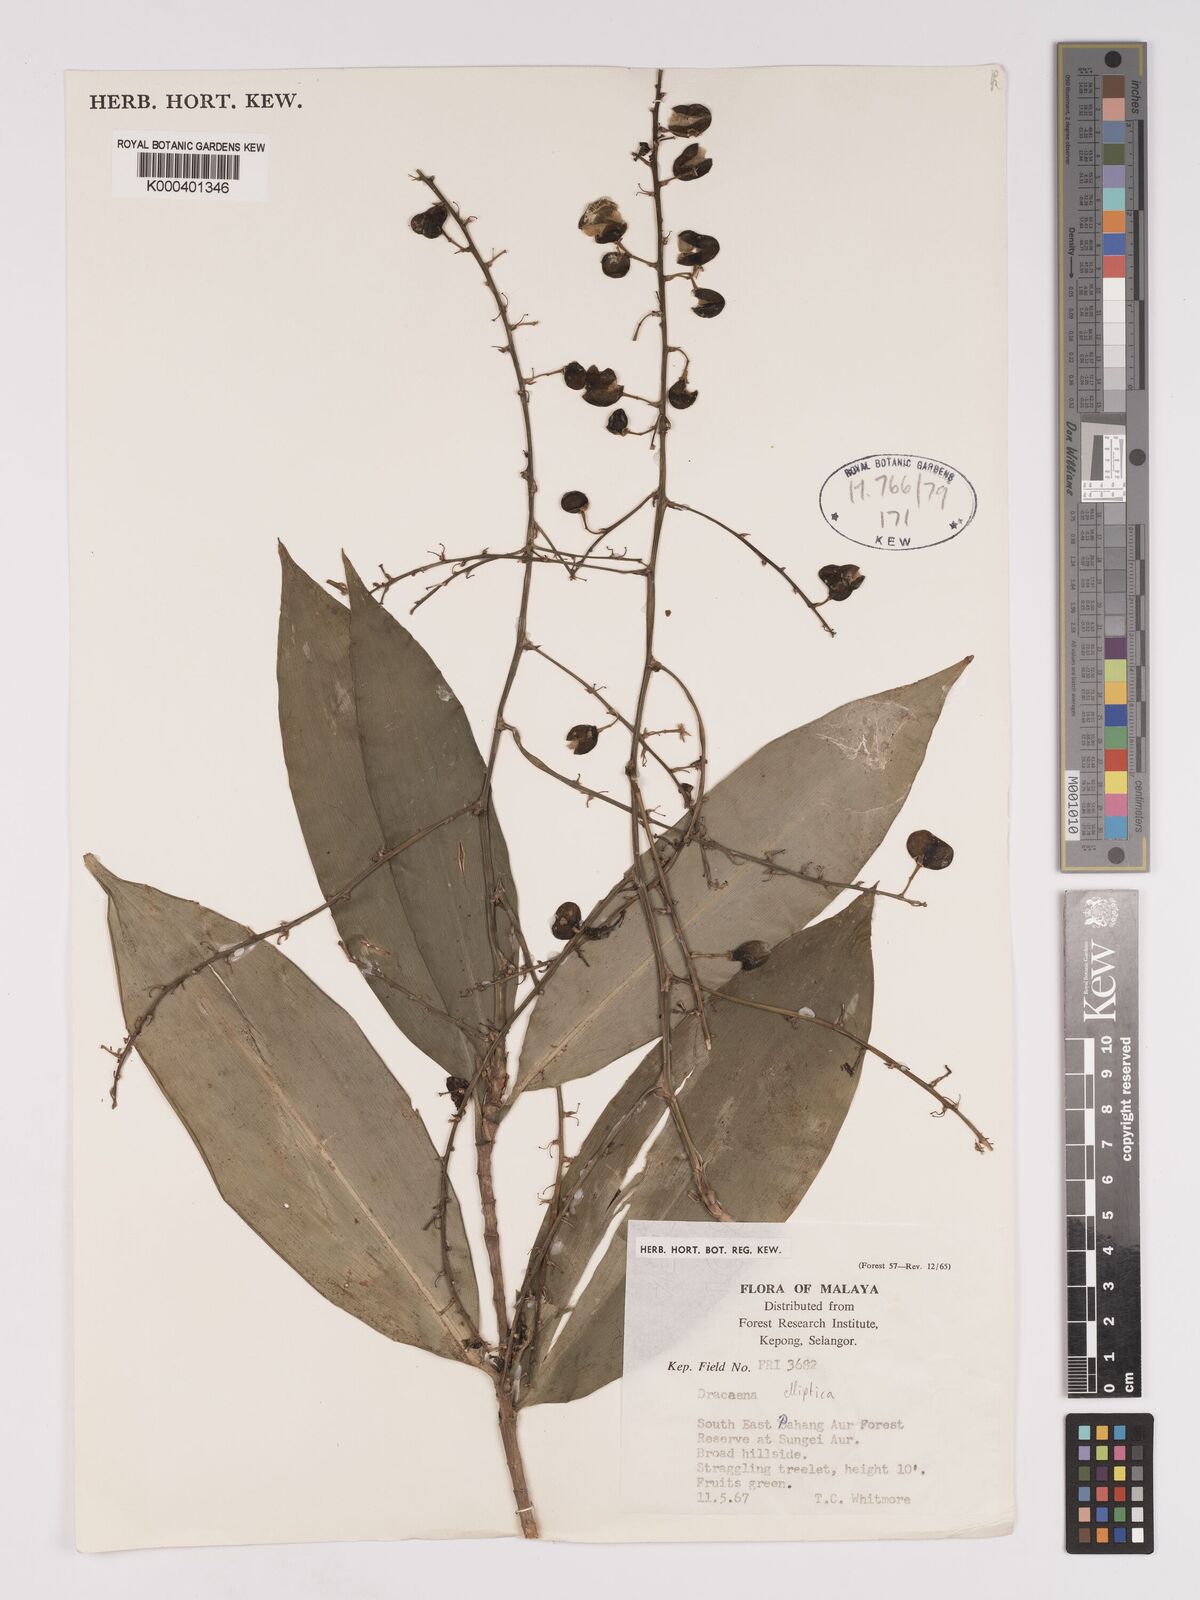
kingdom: Plantae
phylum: Tracheophyta
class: Liliopsida
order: Asparagales
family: Asparagaceae
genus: Dracaena
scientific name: Dracaena elliptica
